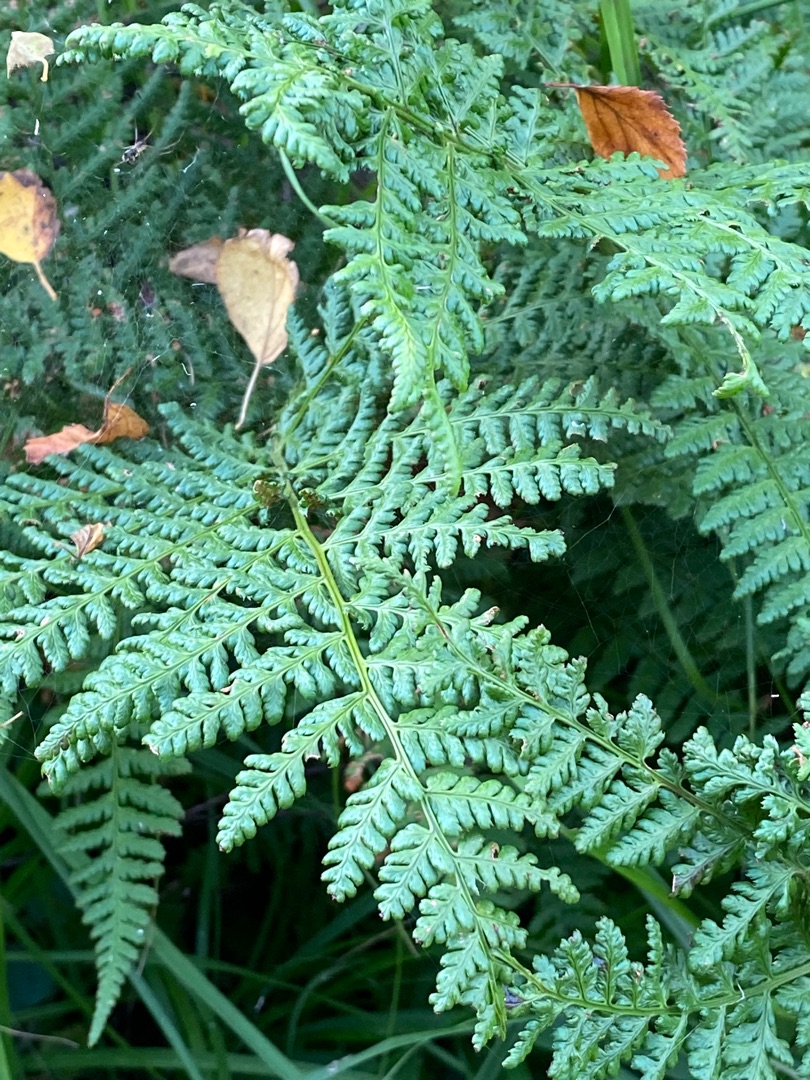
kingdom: Plantae
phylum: Tracheophyta
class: Polypodiopsida
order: Polypodiales
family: Dryopteridaceae
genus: Dryopteris
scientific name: Dryopteris dilatata
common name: Bredbladet mangeløv
